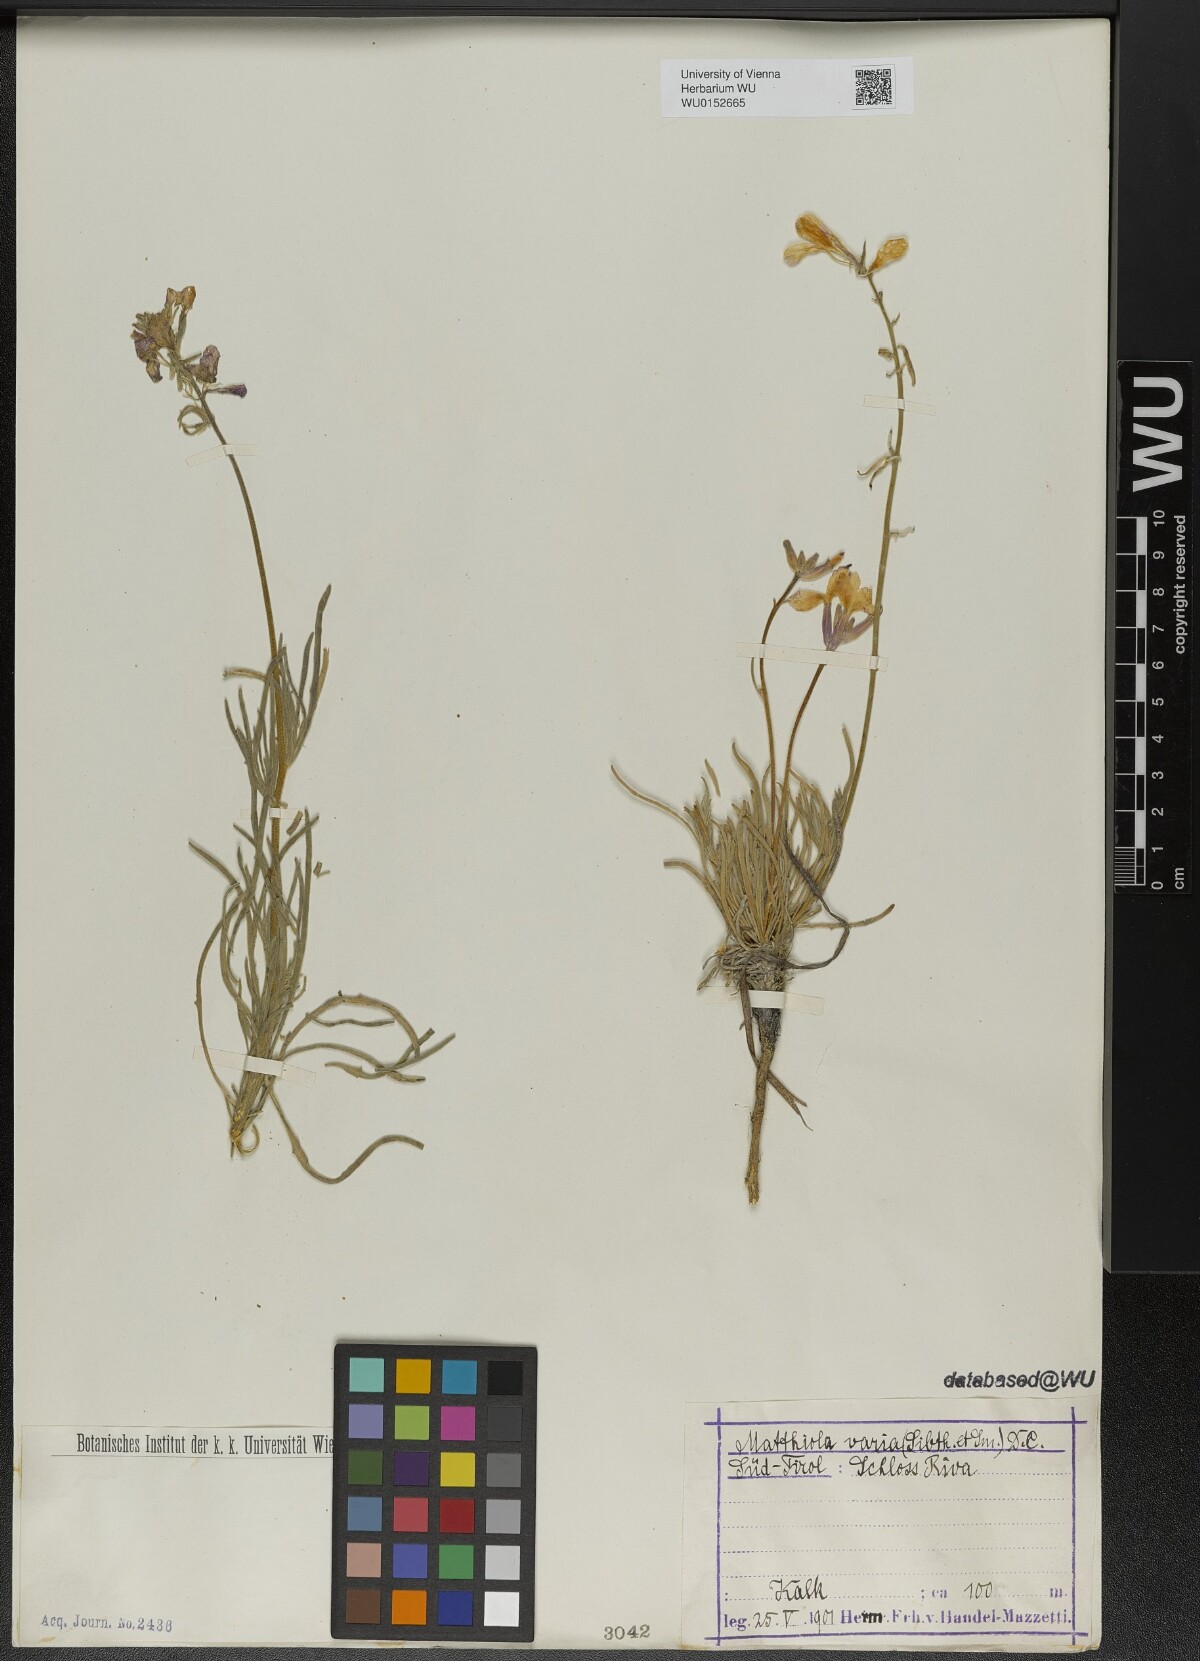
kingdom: Plantae
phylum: Tracheophyta
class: Magnoliopsida
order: Brassicales
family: Brassicaceae
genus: Matthiola
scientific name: Matthiola fruticulosa
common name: Sad stock
